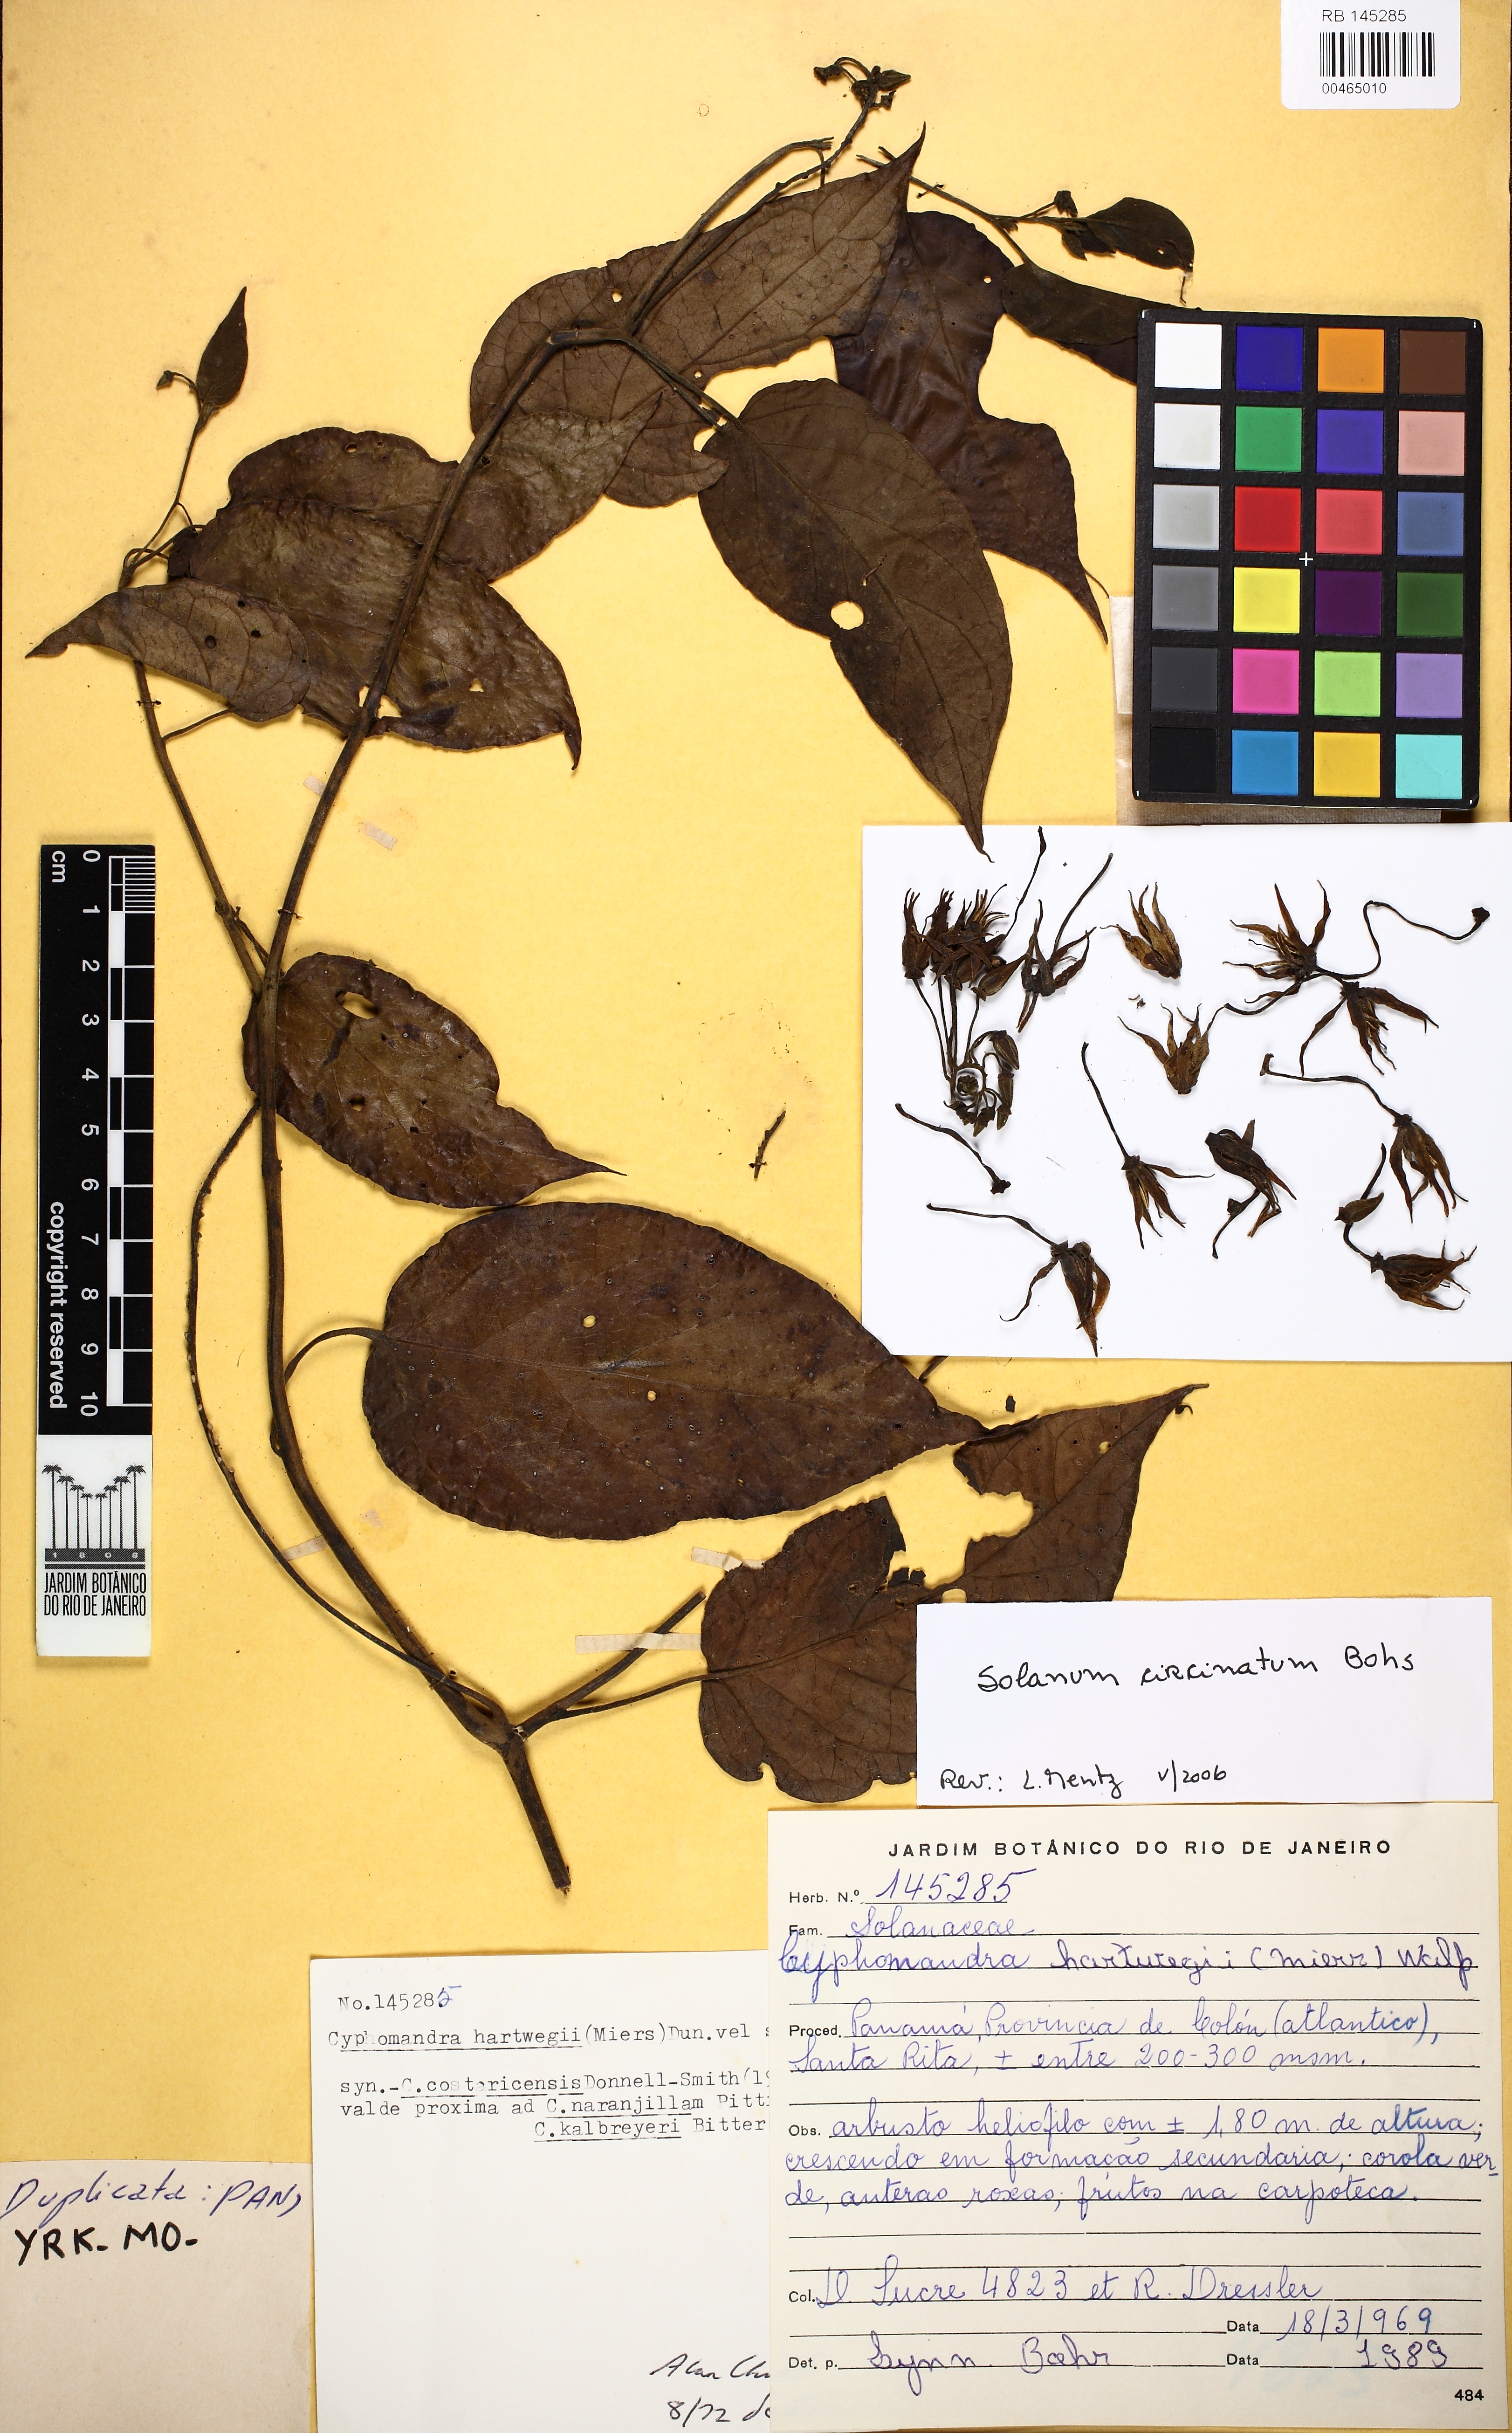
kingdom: Plantae
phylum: Tracheophyta
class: Magnoliopsida
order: Solanales
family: Solanaceae
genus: Solanum
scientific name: Solanum splendens
